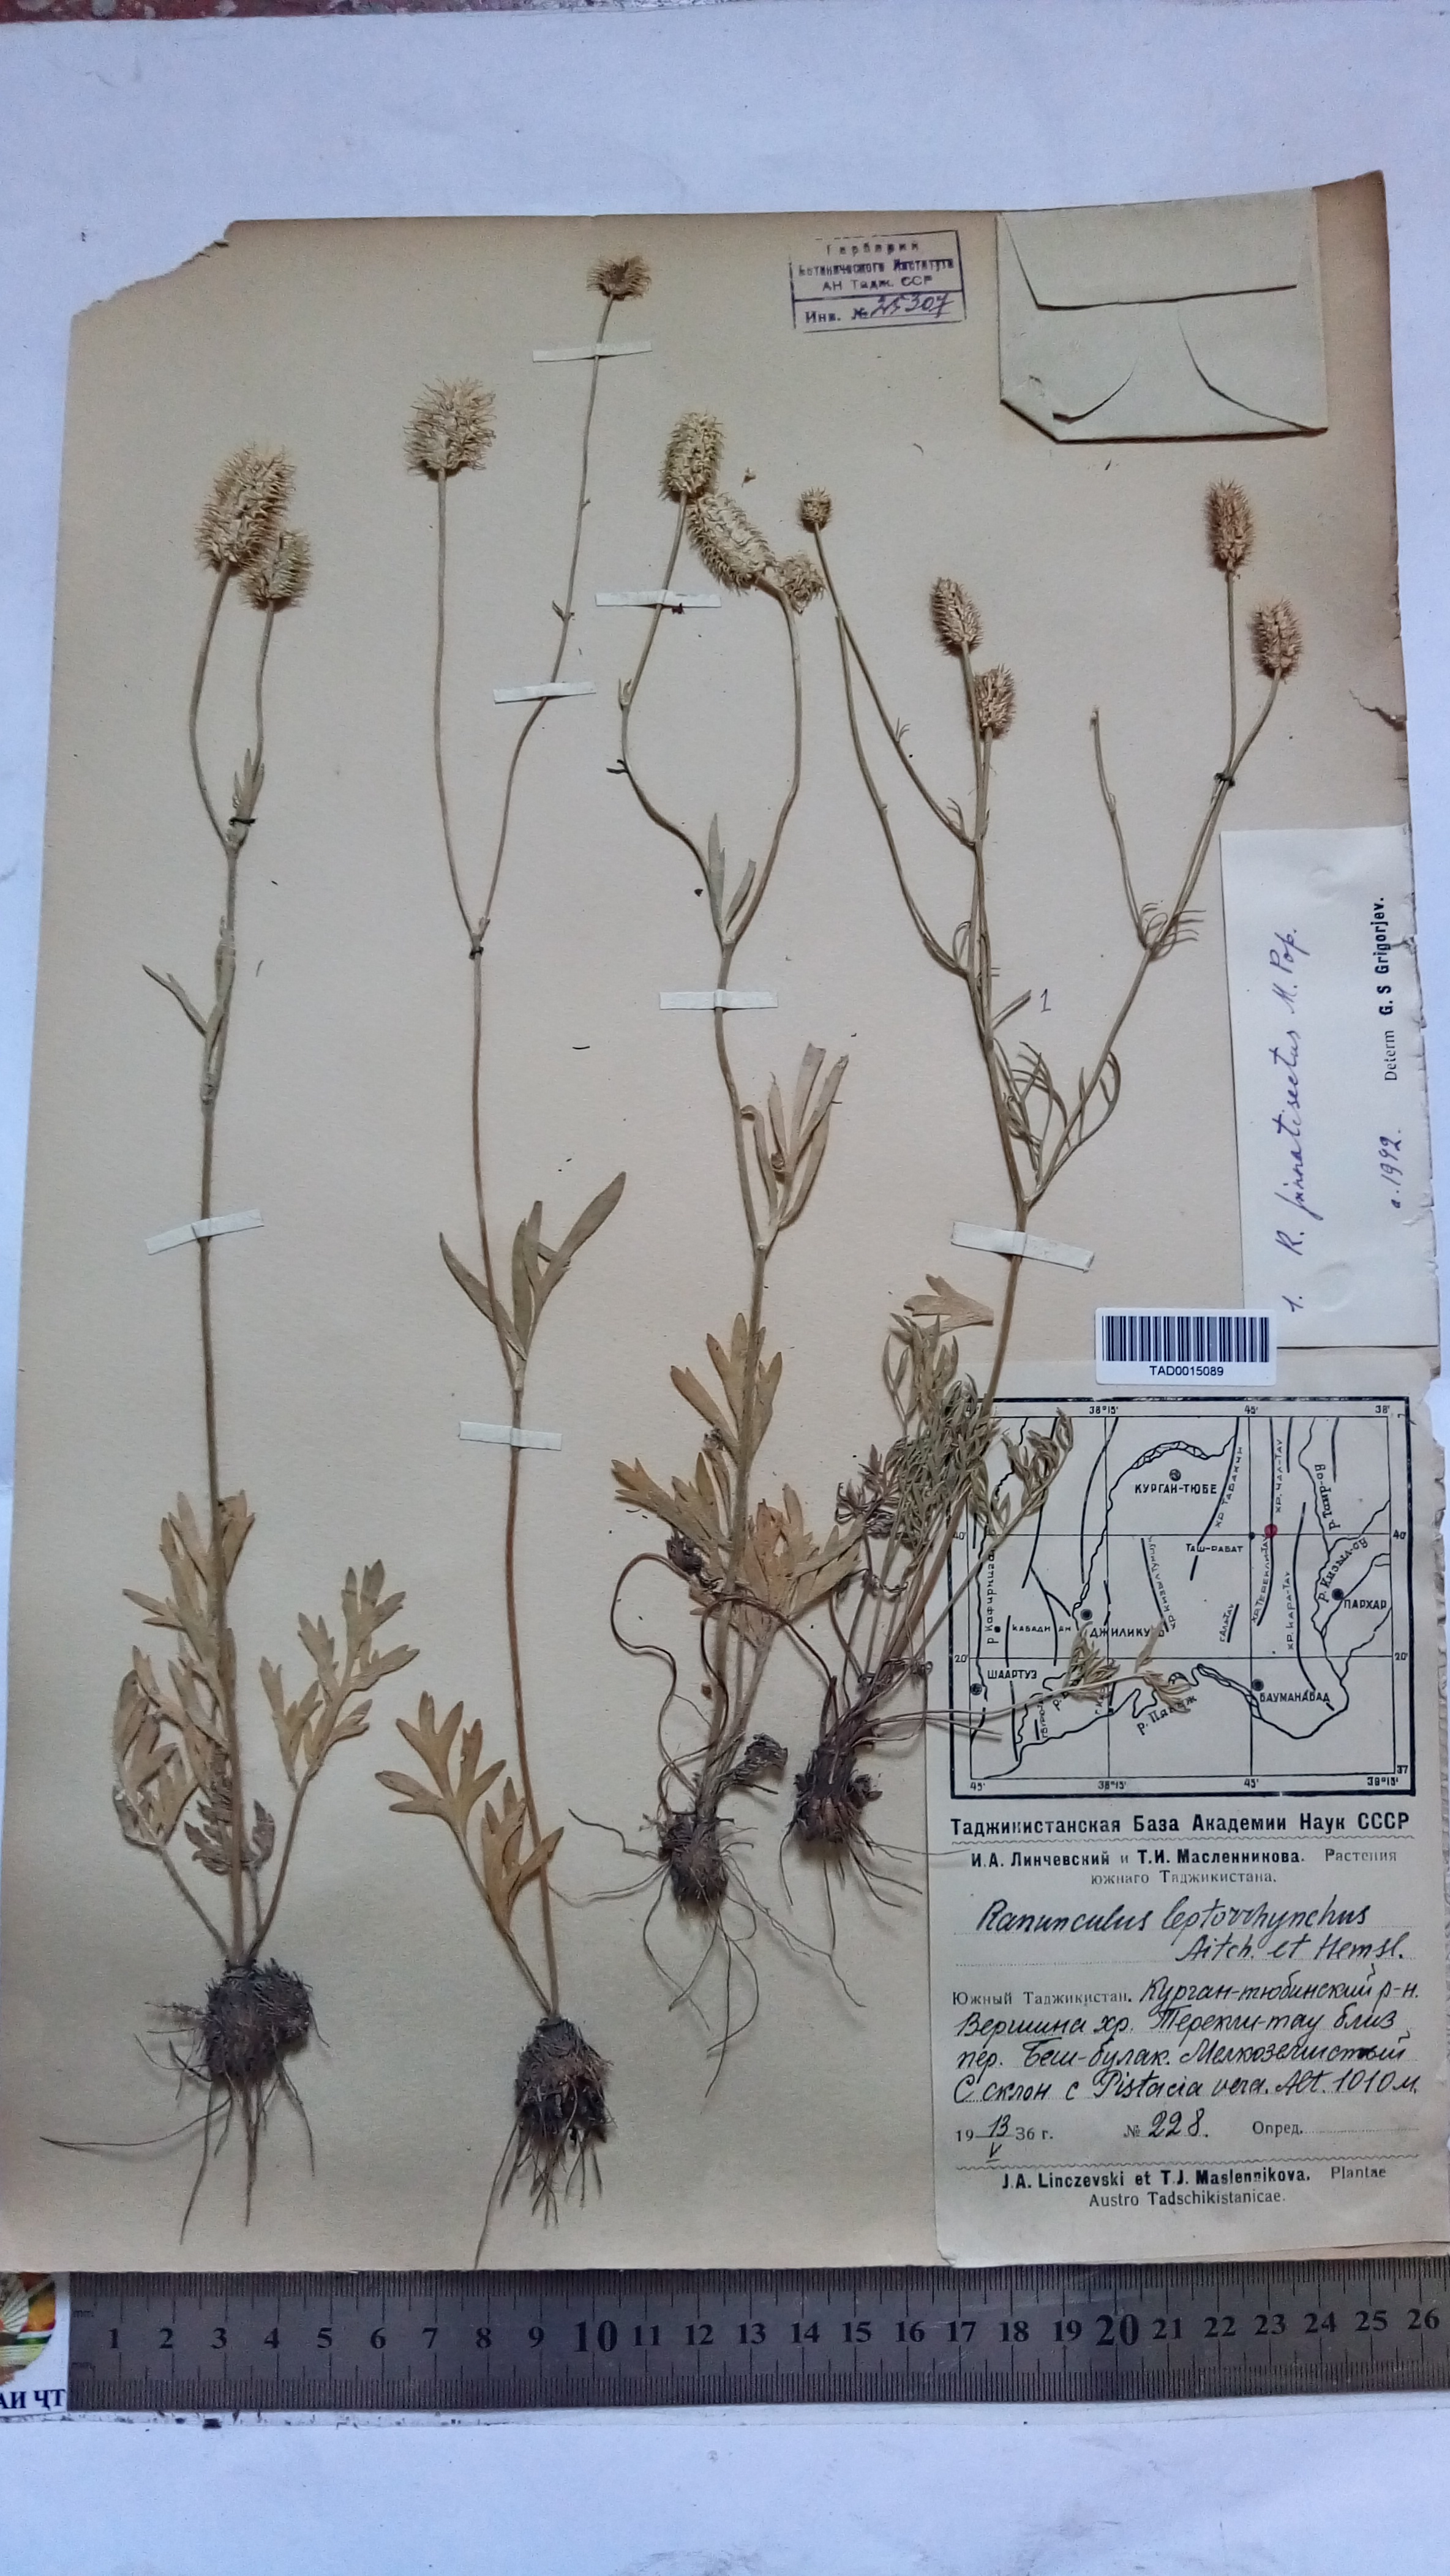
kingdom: Plantae
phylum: Tracheophyta
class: Magnoliopsida
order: Ranunculales
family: Ranunculaceae
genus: Ranunculus
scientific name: Ranunculus pinnatisectus
